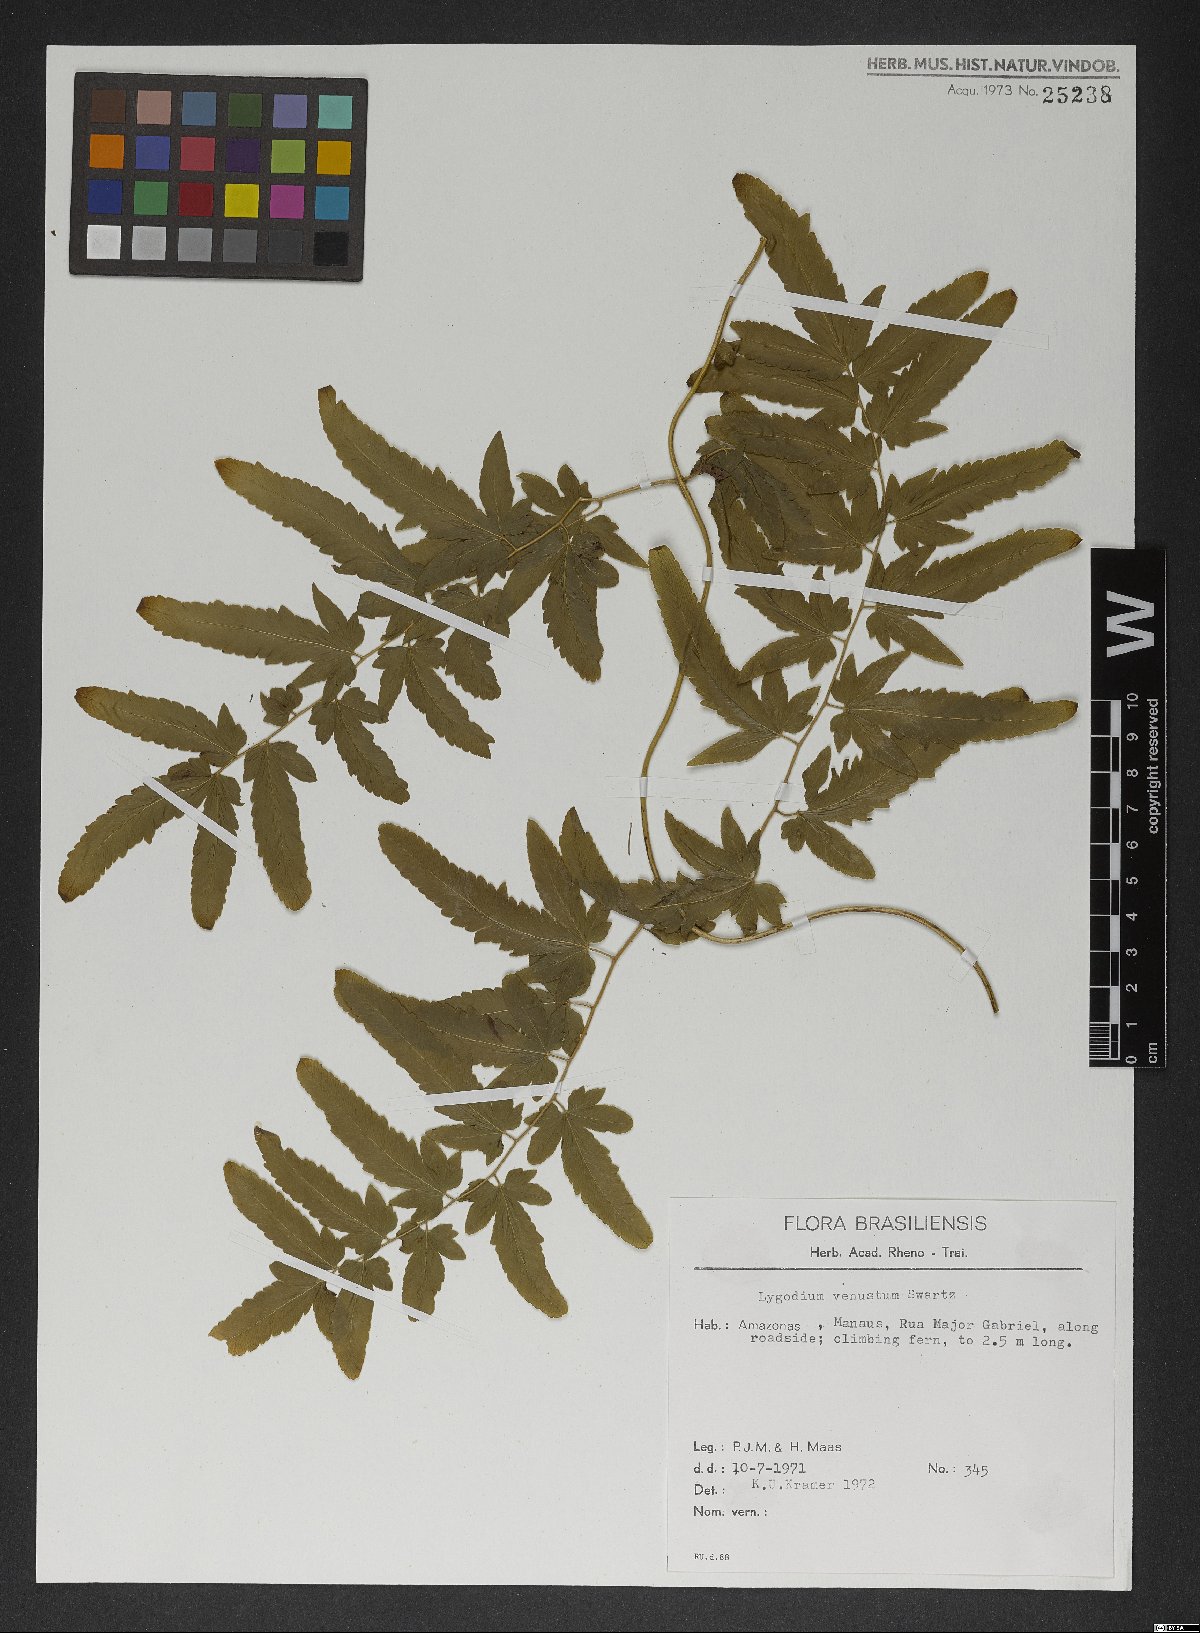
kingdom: Plantae
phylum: Tracheophyta
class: Polypodiopsida
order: Schizaeales
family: Lygodiaceae
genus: Lygodium
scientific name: Lygodium venustum
